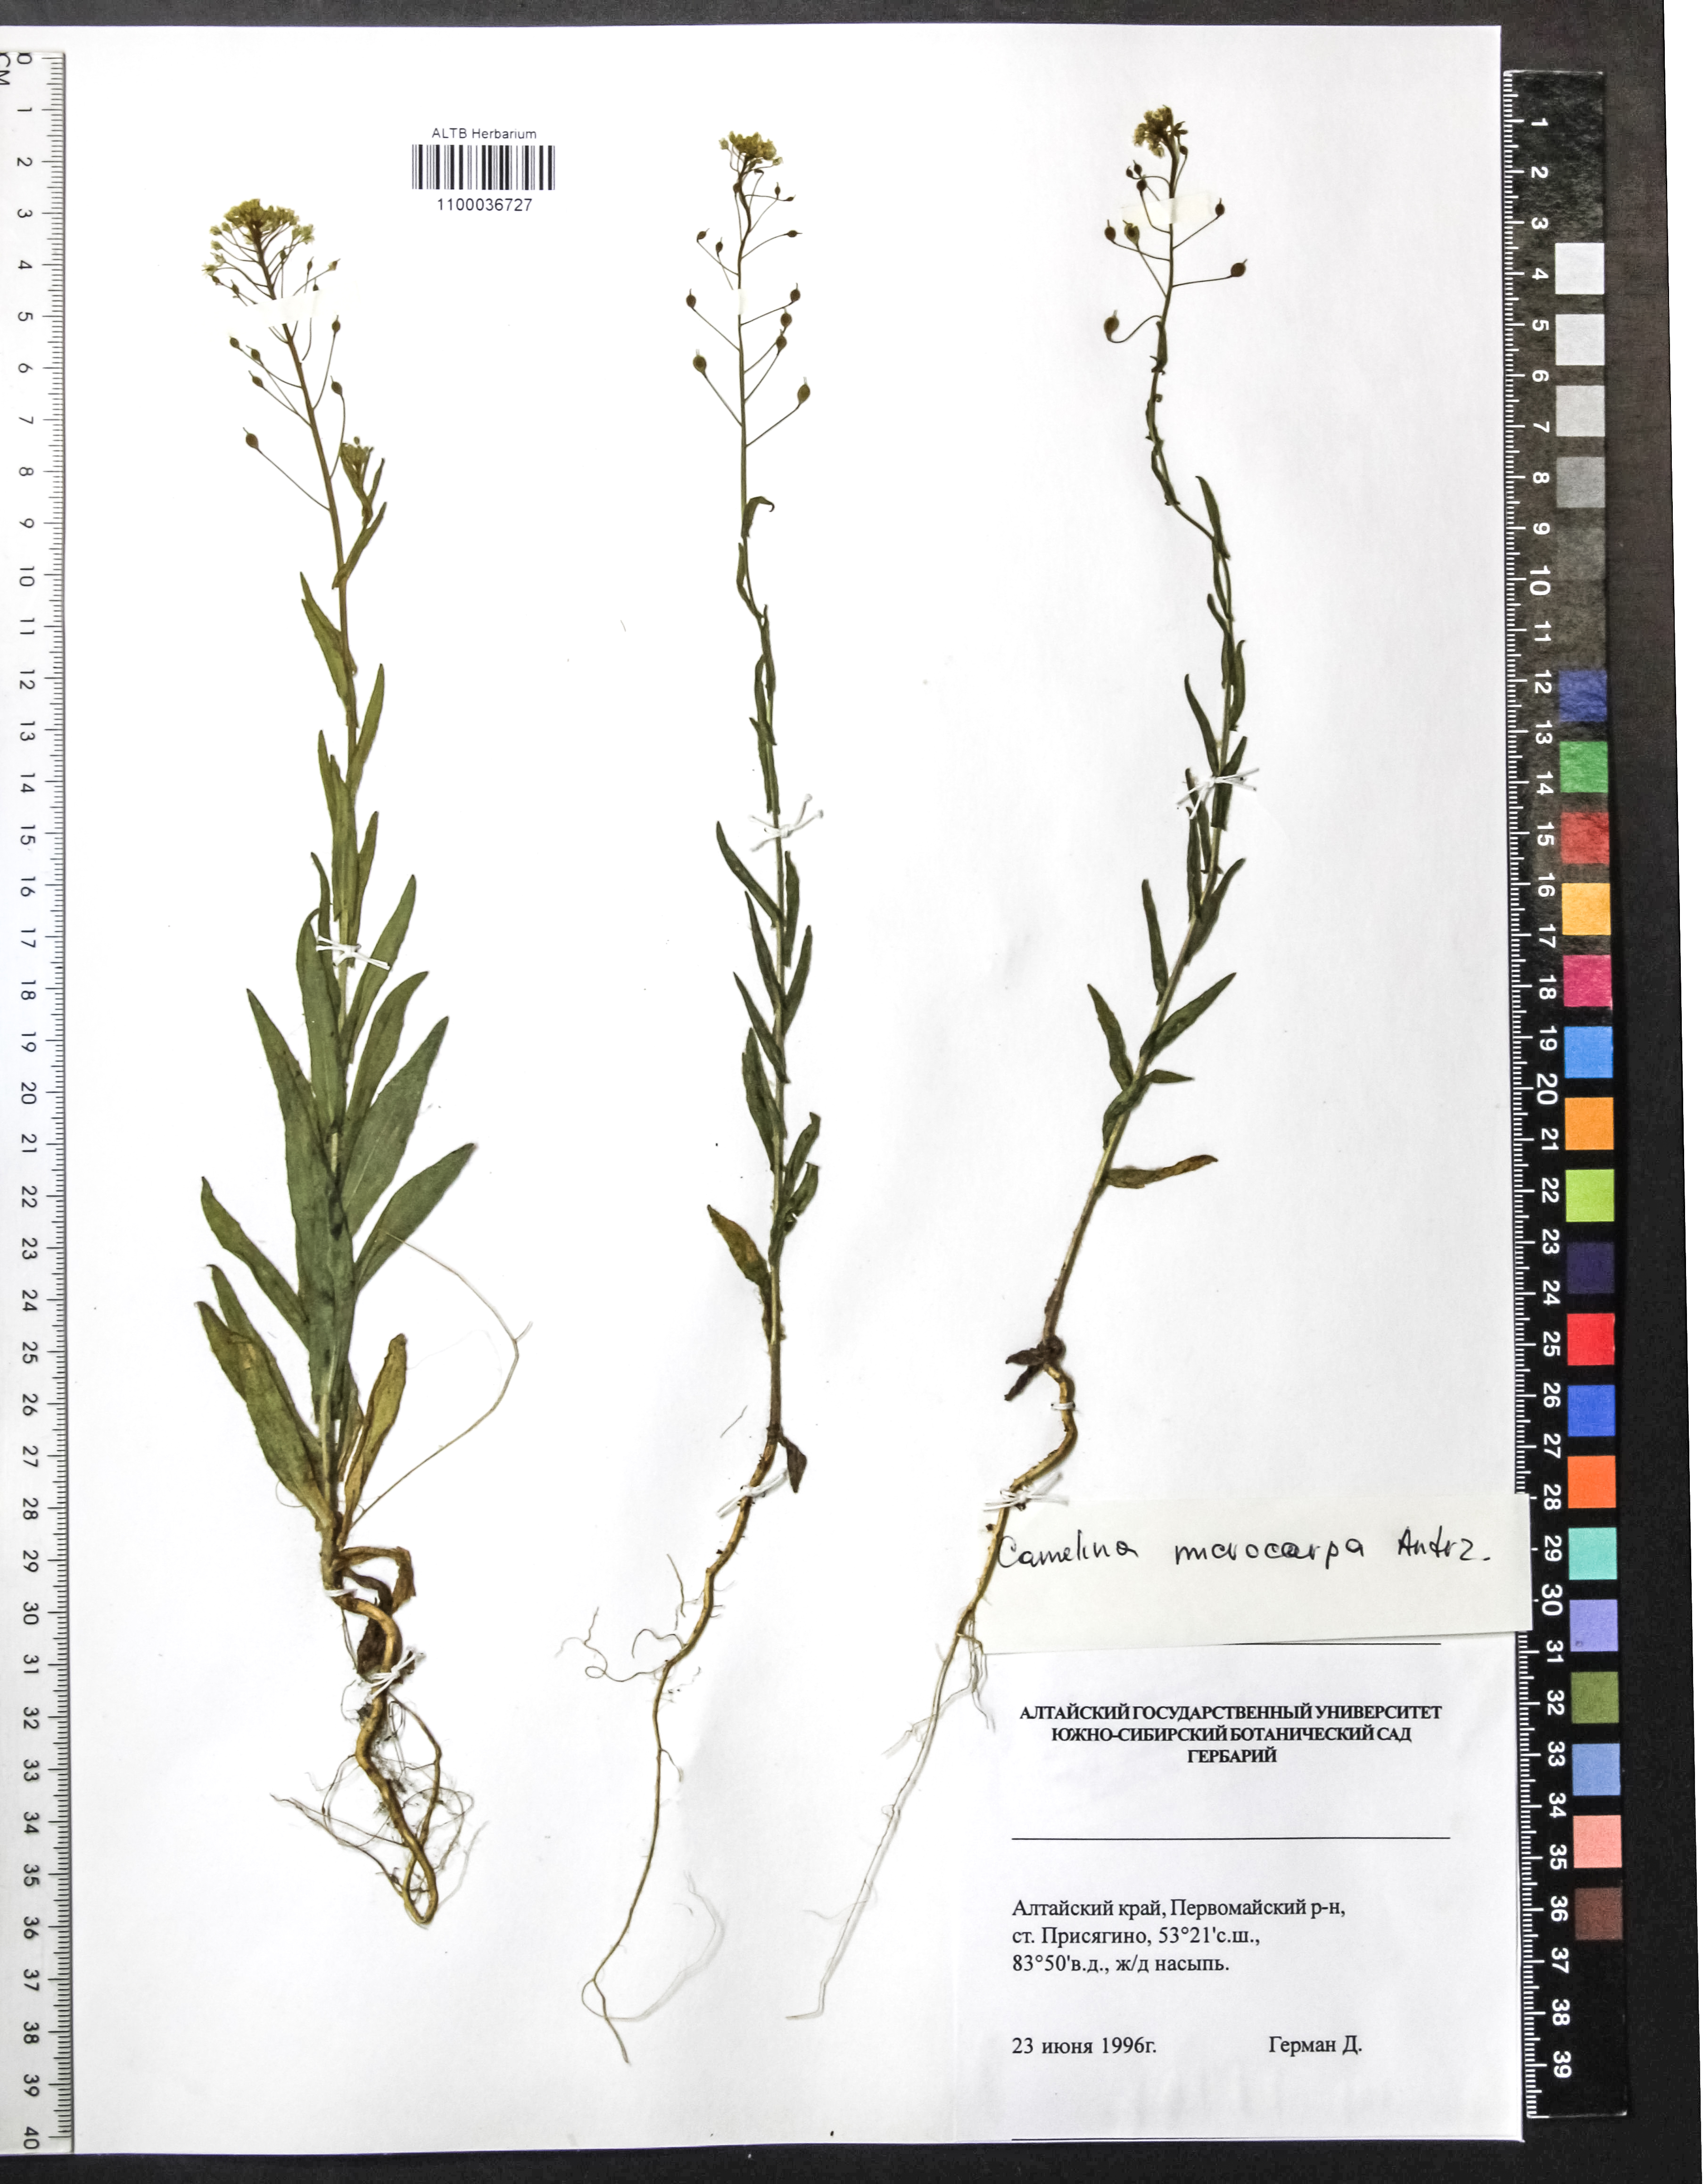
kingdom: Plantae
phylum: Tracheophyta
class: Magnoliopsida
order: Brassicales
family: Brassicaceae
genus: Camelina
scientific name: Camelina microcarpa
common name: Lesser gold-of-pleasure
